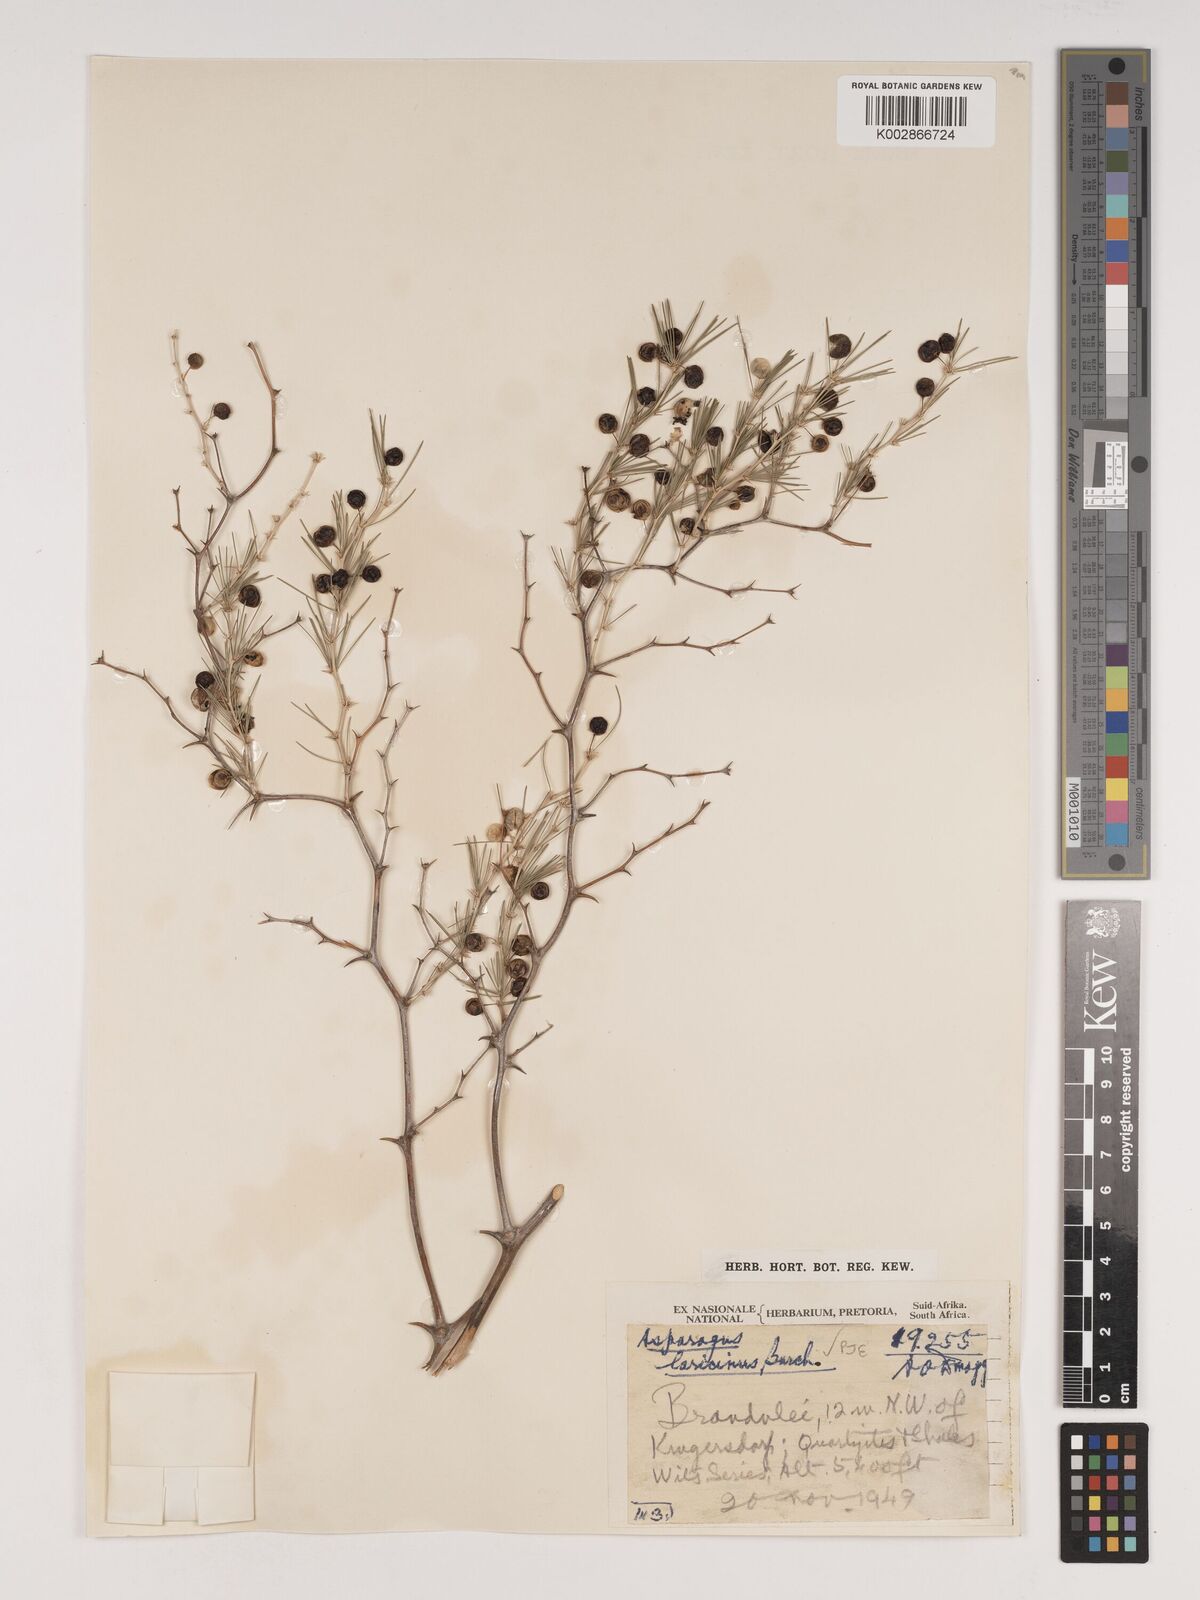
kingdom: Plantae
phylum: Tracheophyta
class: Liliopsida
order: Asparagales
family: Asparagaceae
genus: Asparagus
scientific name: Asparagus laricinus
